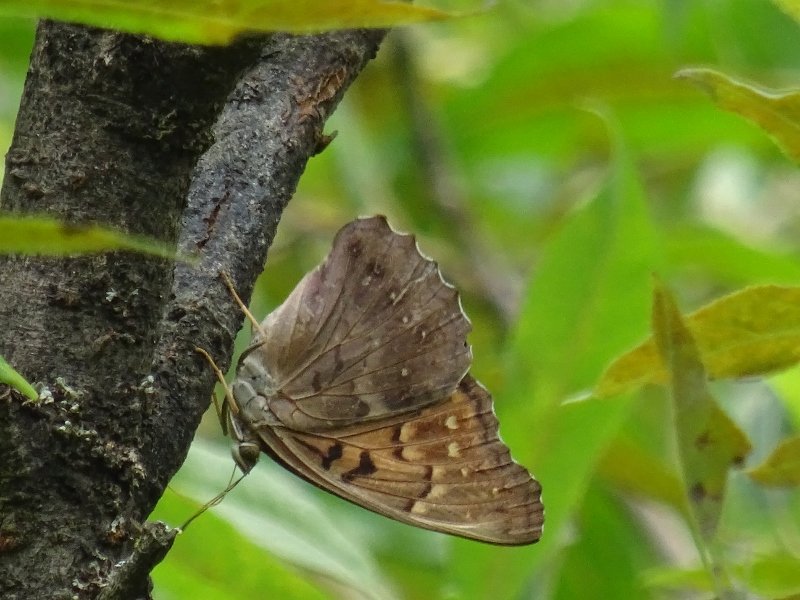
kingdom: Animalia
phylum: Arthropoda
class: Insecta
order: Lepidoptera
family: Nymphalidae
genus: Asterocampa
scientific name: Asterocampa clyton
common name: Tawny Emperor
